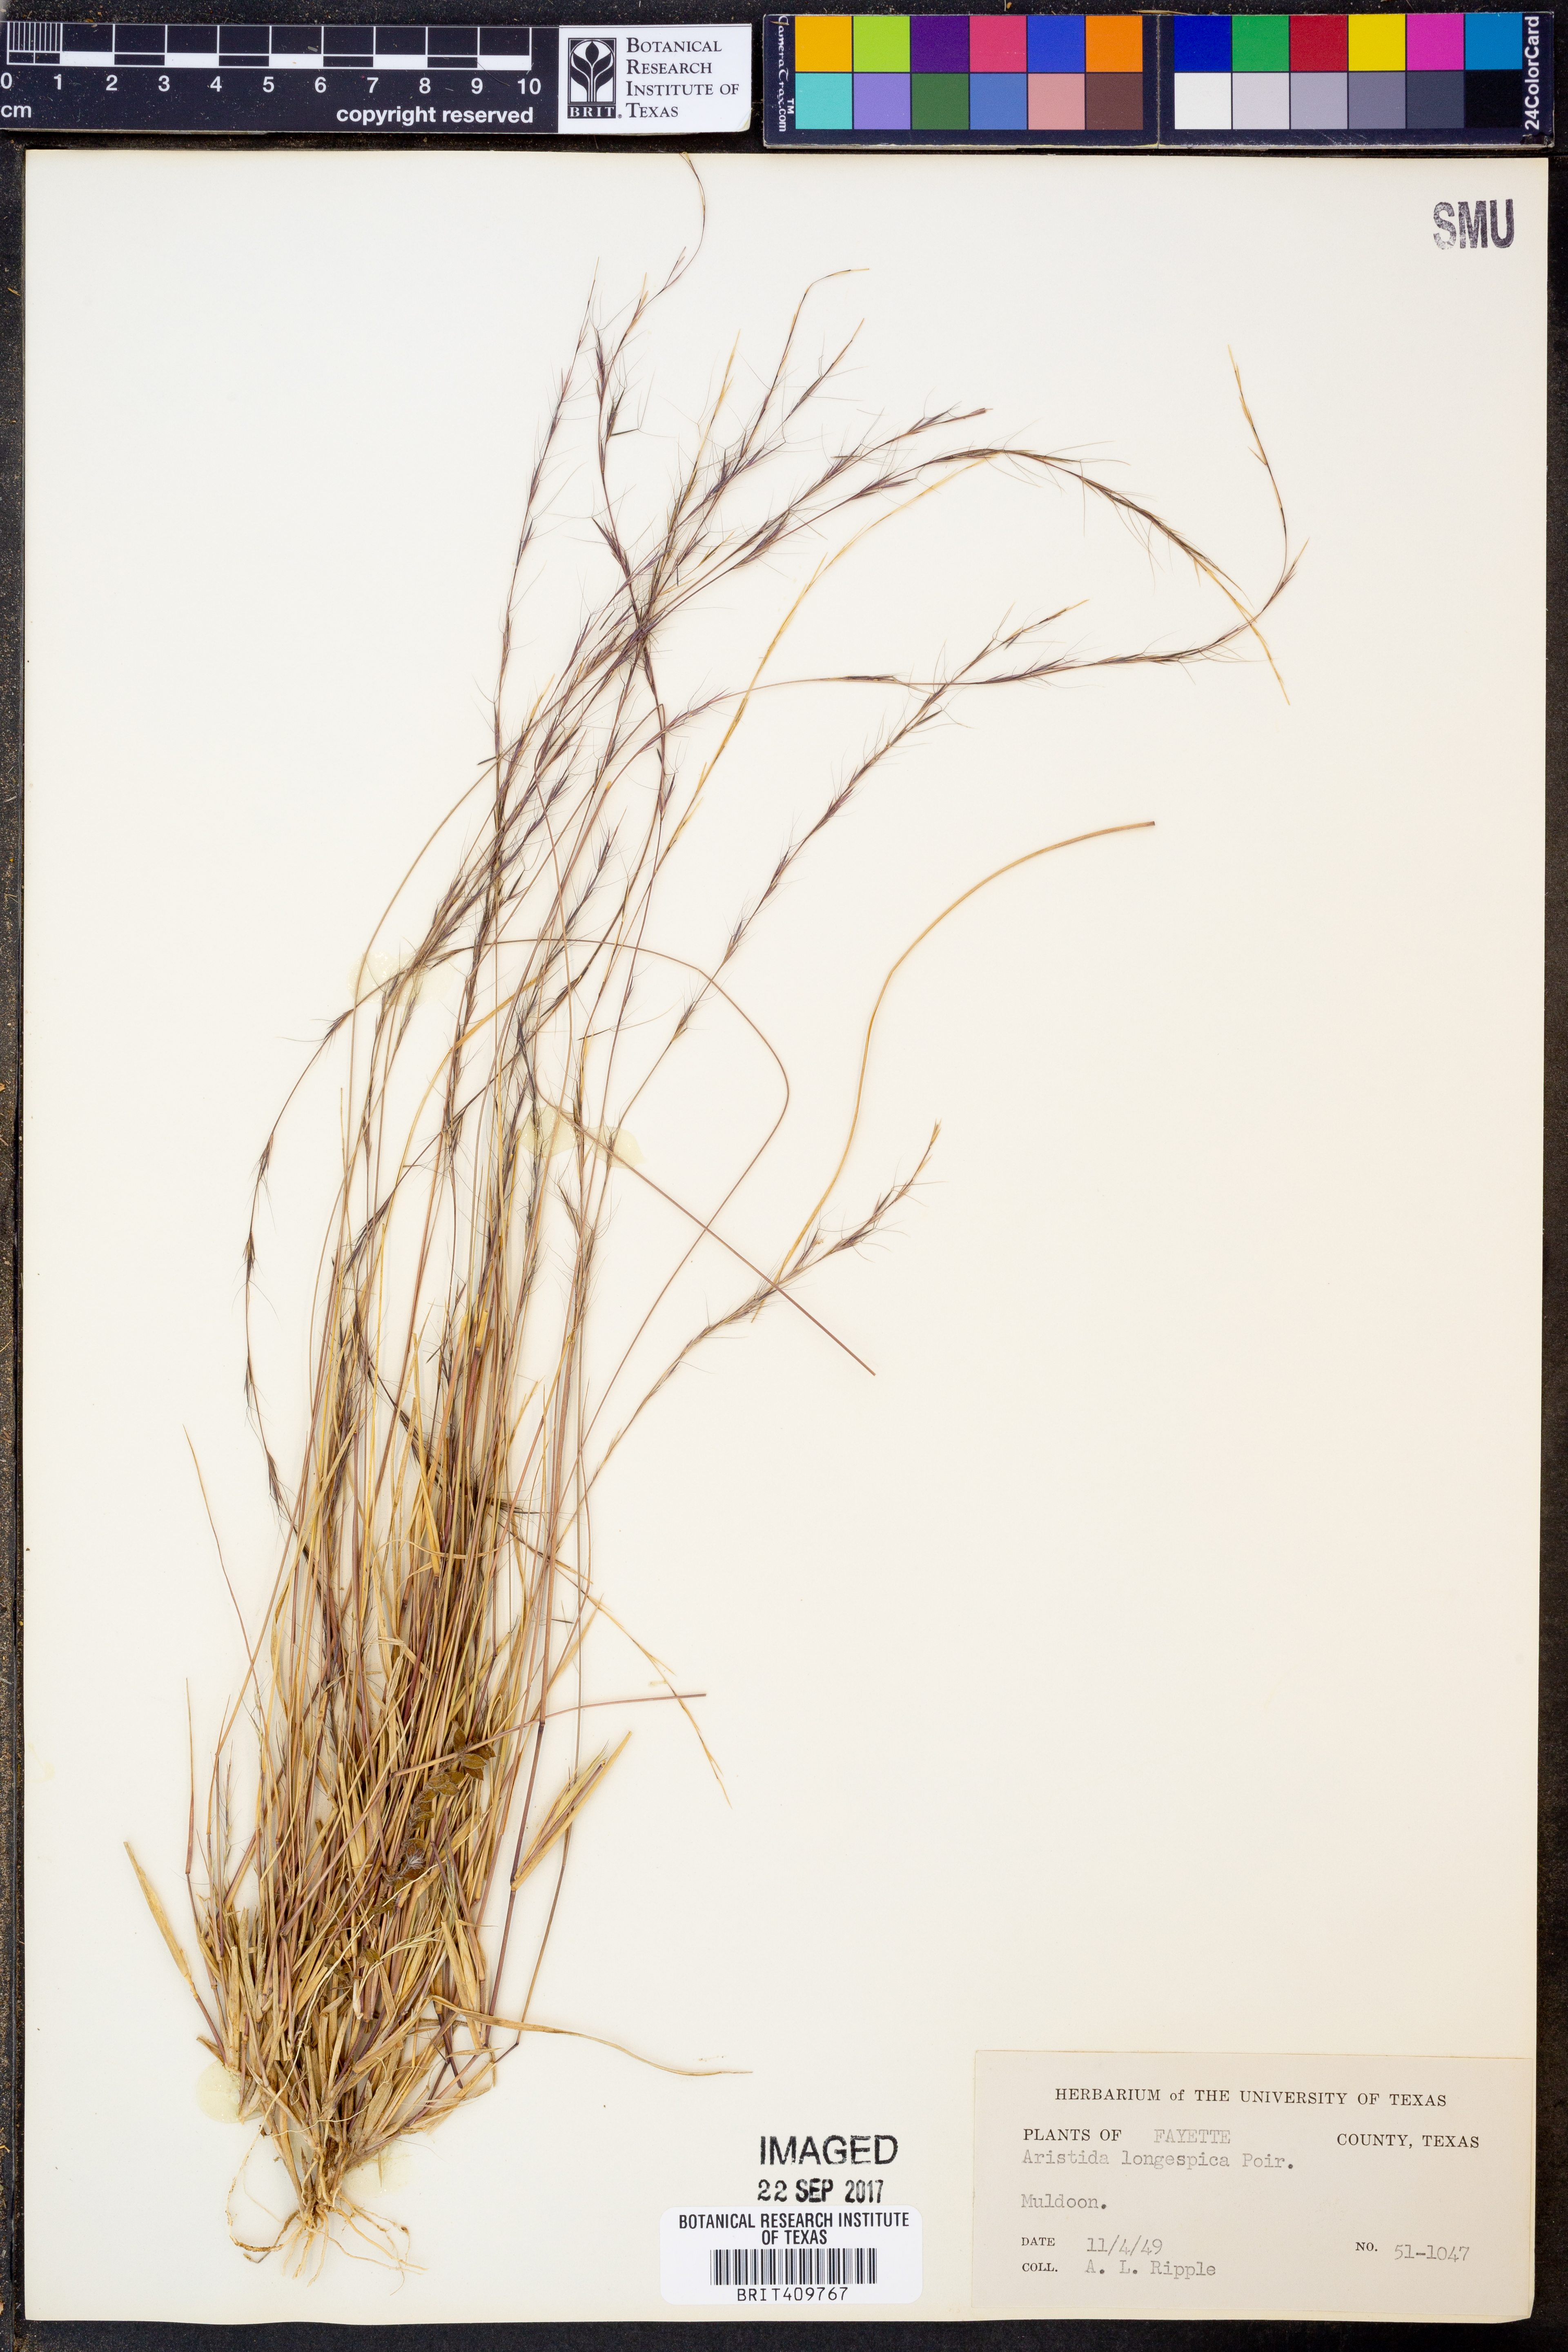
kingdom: Plantae
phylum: Tracheophyta
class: Liliopsida
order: Poales
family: Poaceae
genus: Aristida
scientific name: Aristida longespica
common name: Long-spiked triple-awned grass
